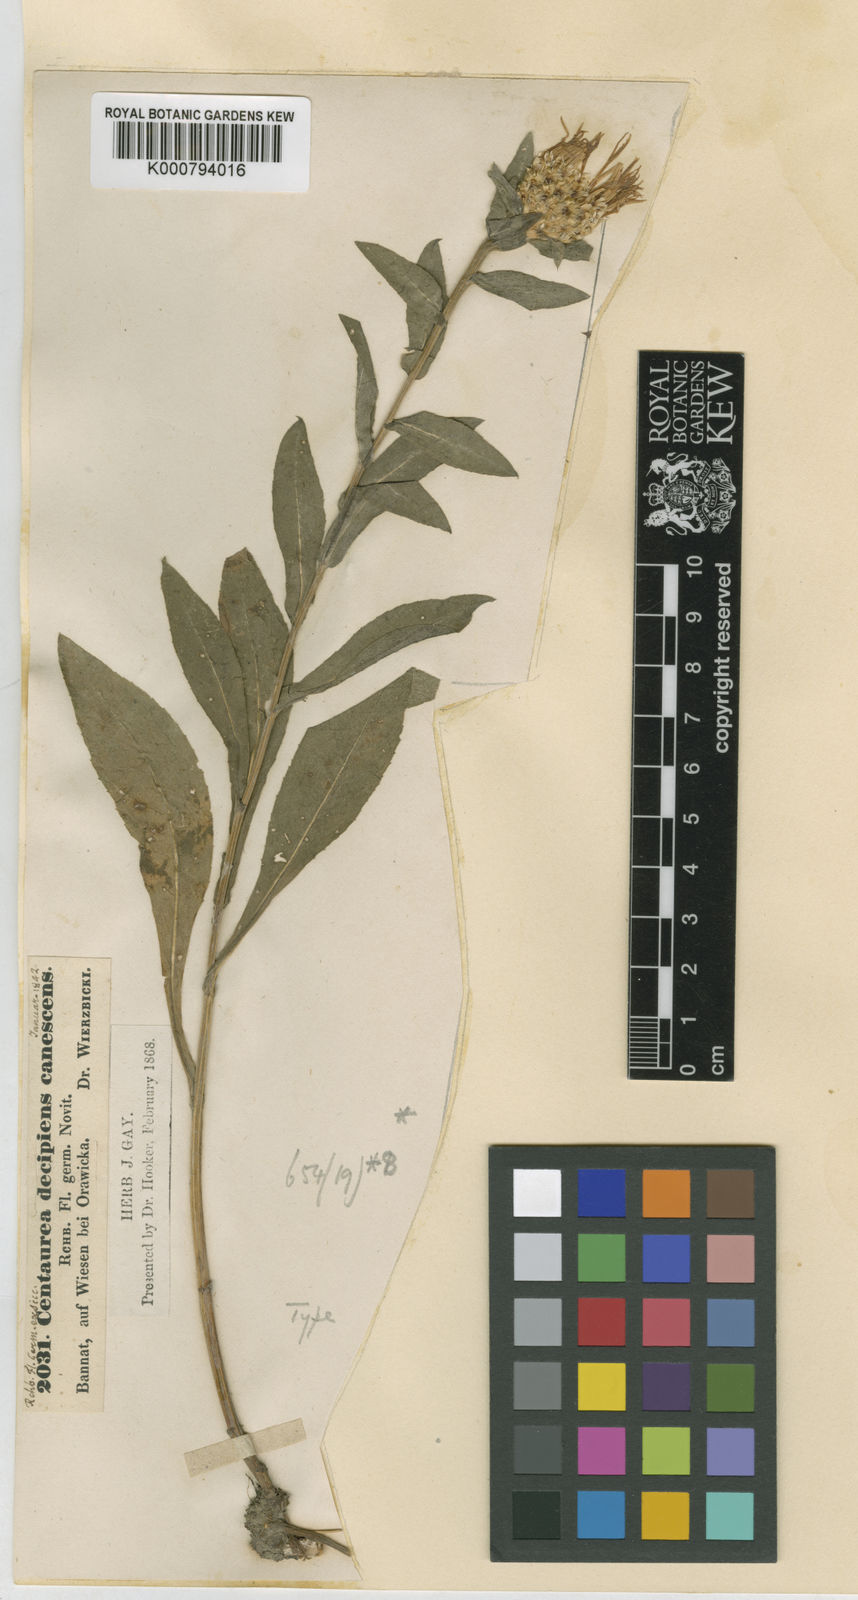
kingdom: Plantae
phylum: Tracheophyta
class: Magnoliopsida
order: Asterales
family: Asteraceae
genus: Centaurea
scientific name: Centaurea
